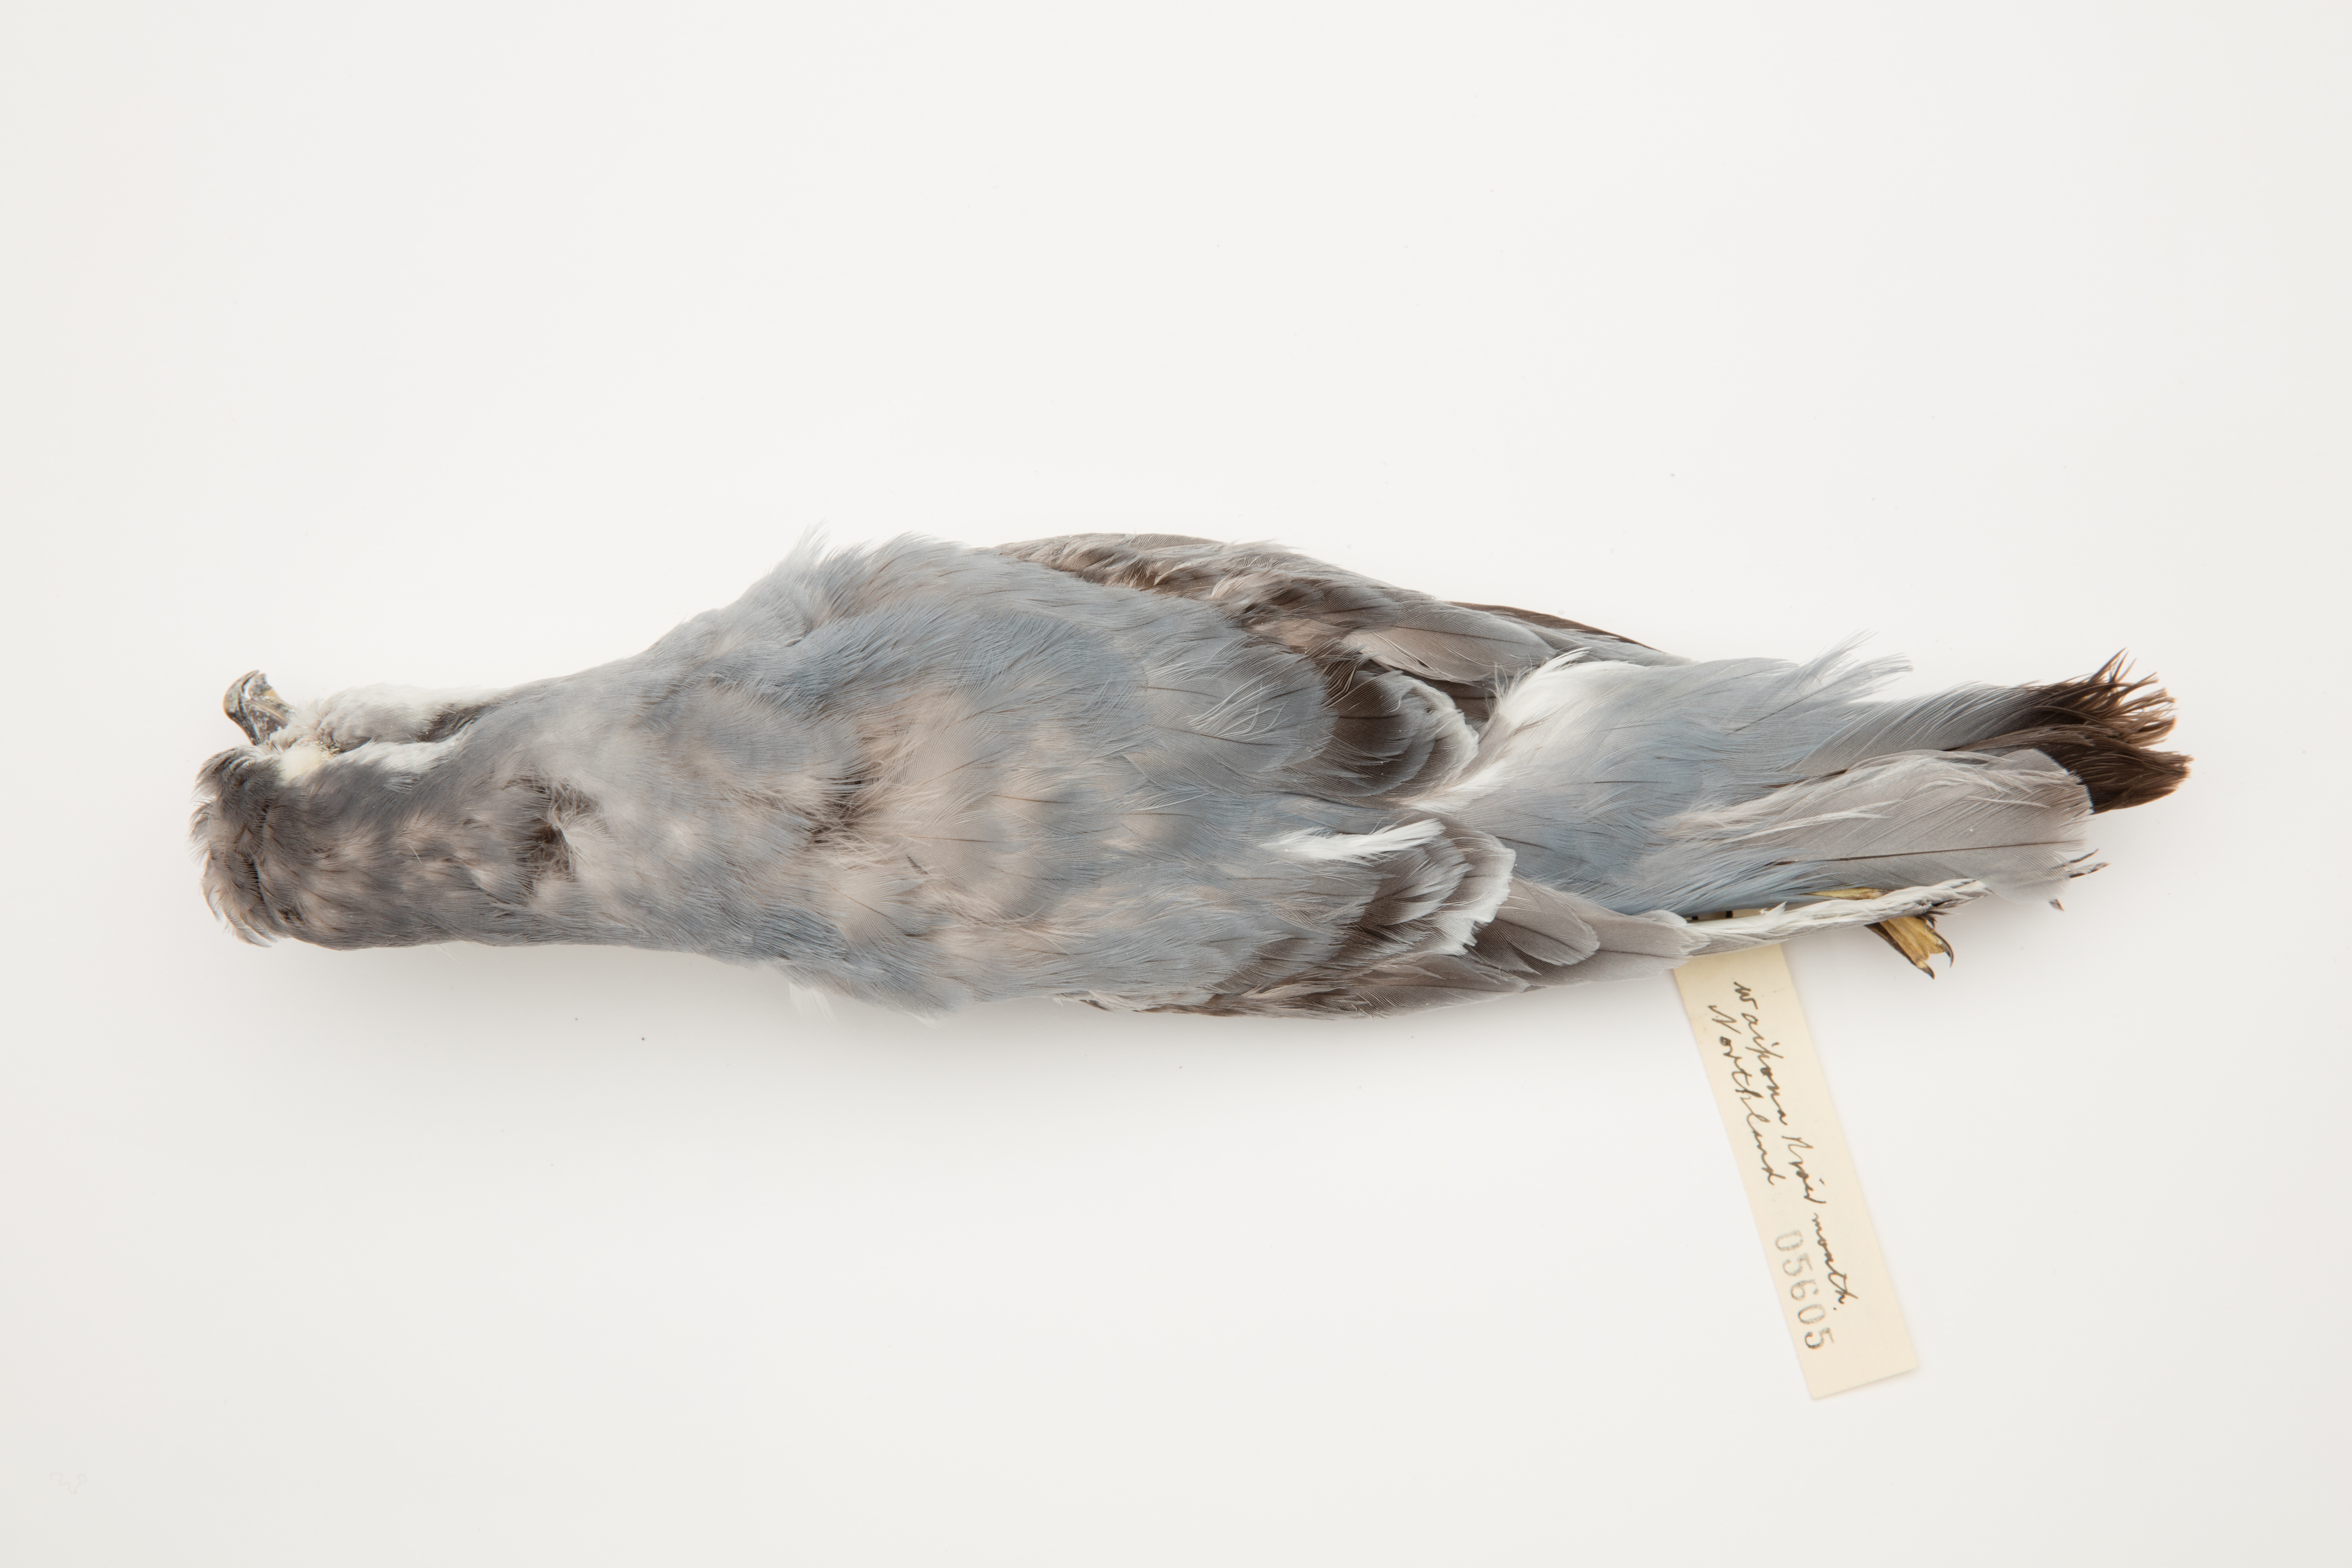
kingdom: Animalia
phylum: Chordata
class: Aves
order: Procellariiformes
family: Procellariidae
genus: Pachyptila
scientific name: Pachyptila belcheri
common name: Slender-billed prion
